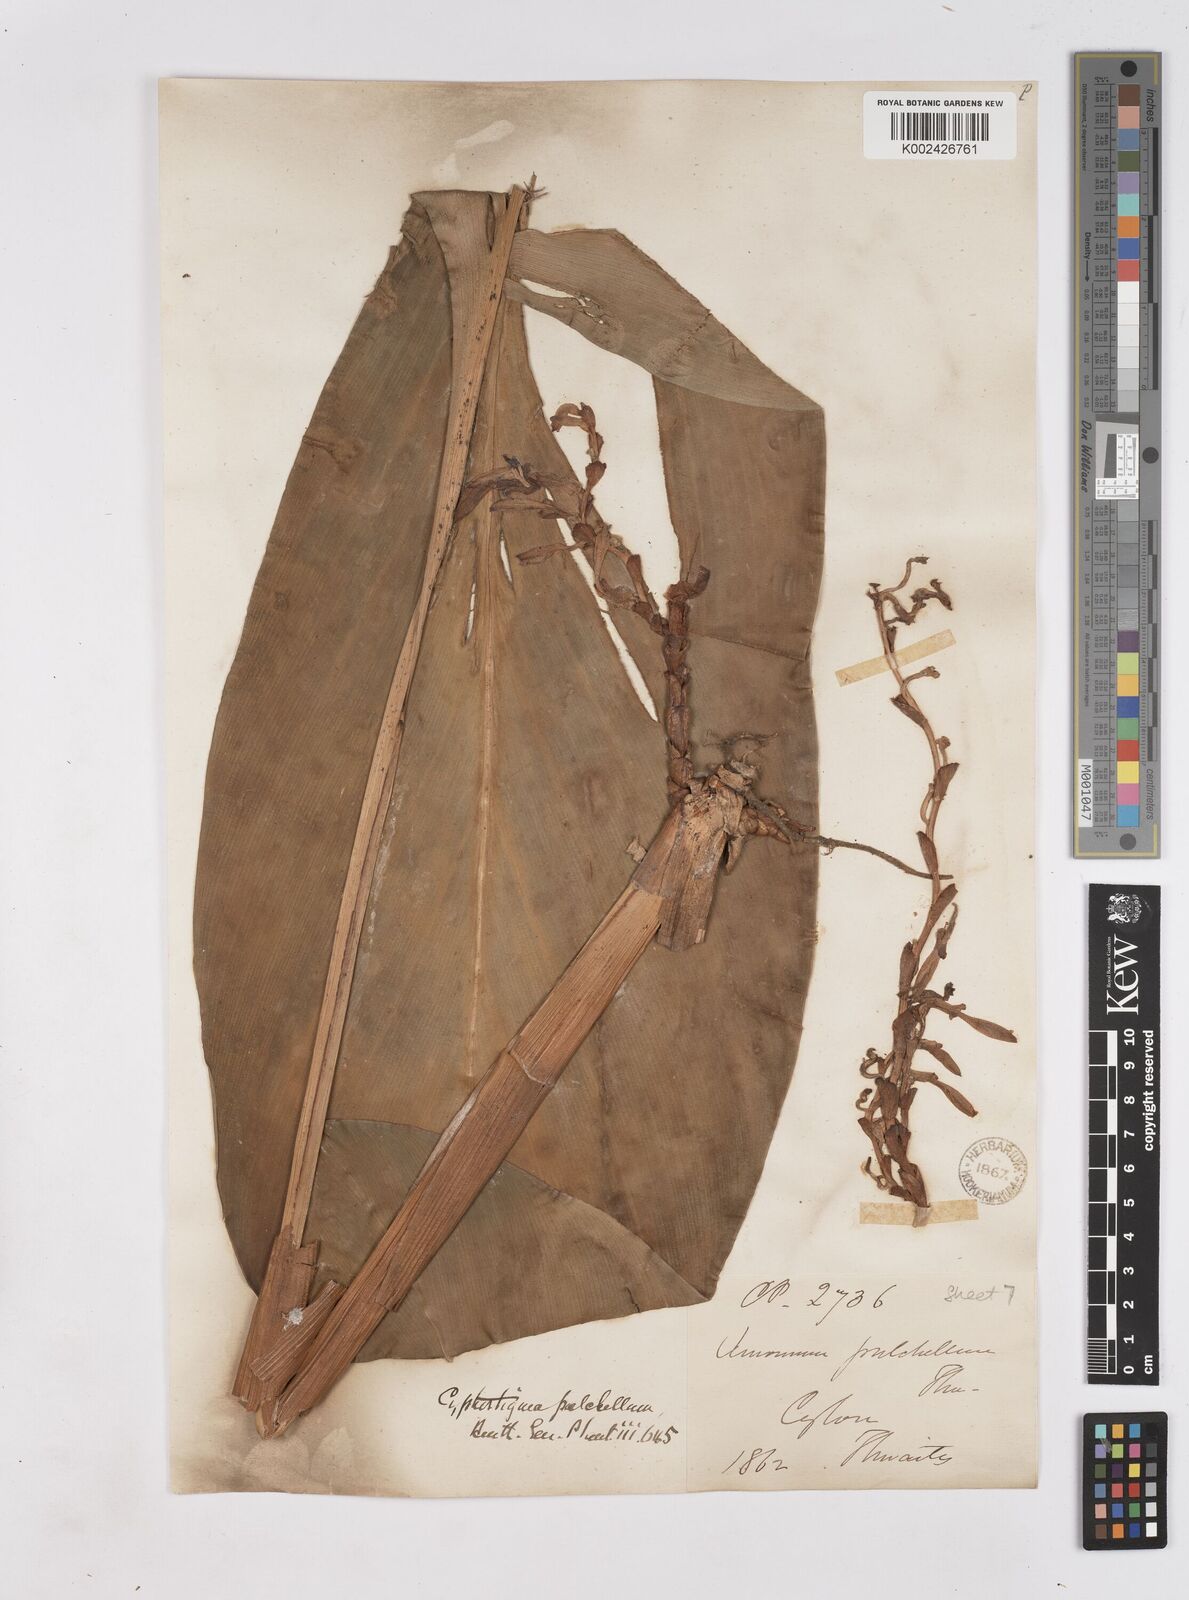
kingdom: Plantae
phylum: Tracheophyta
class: Liliopsida
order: Zingiberales
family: Zingiberaceae
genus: Cyphostigma
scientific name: Cyphostigma pulchellum
